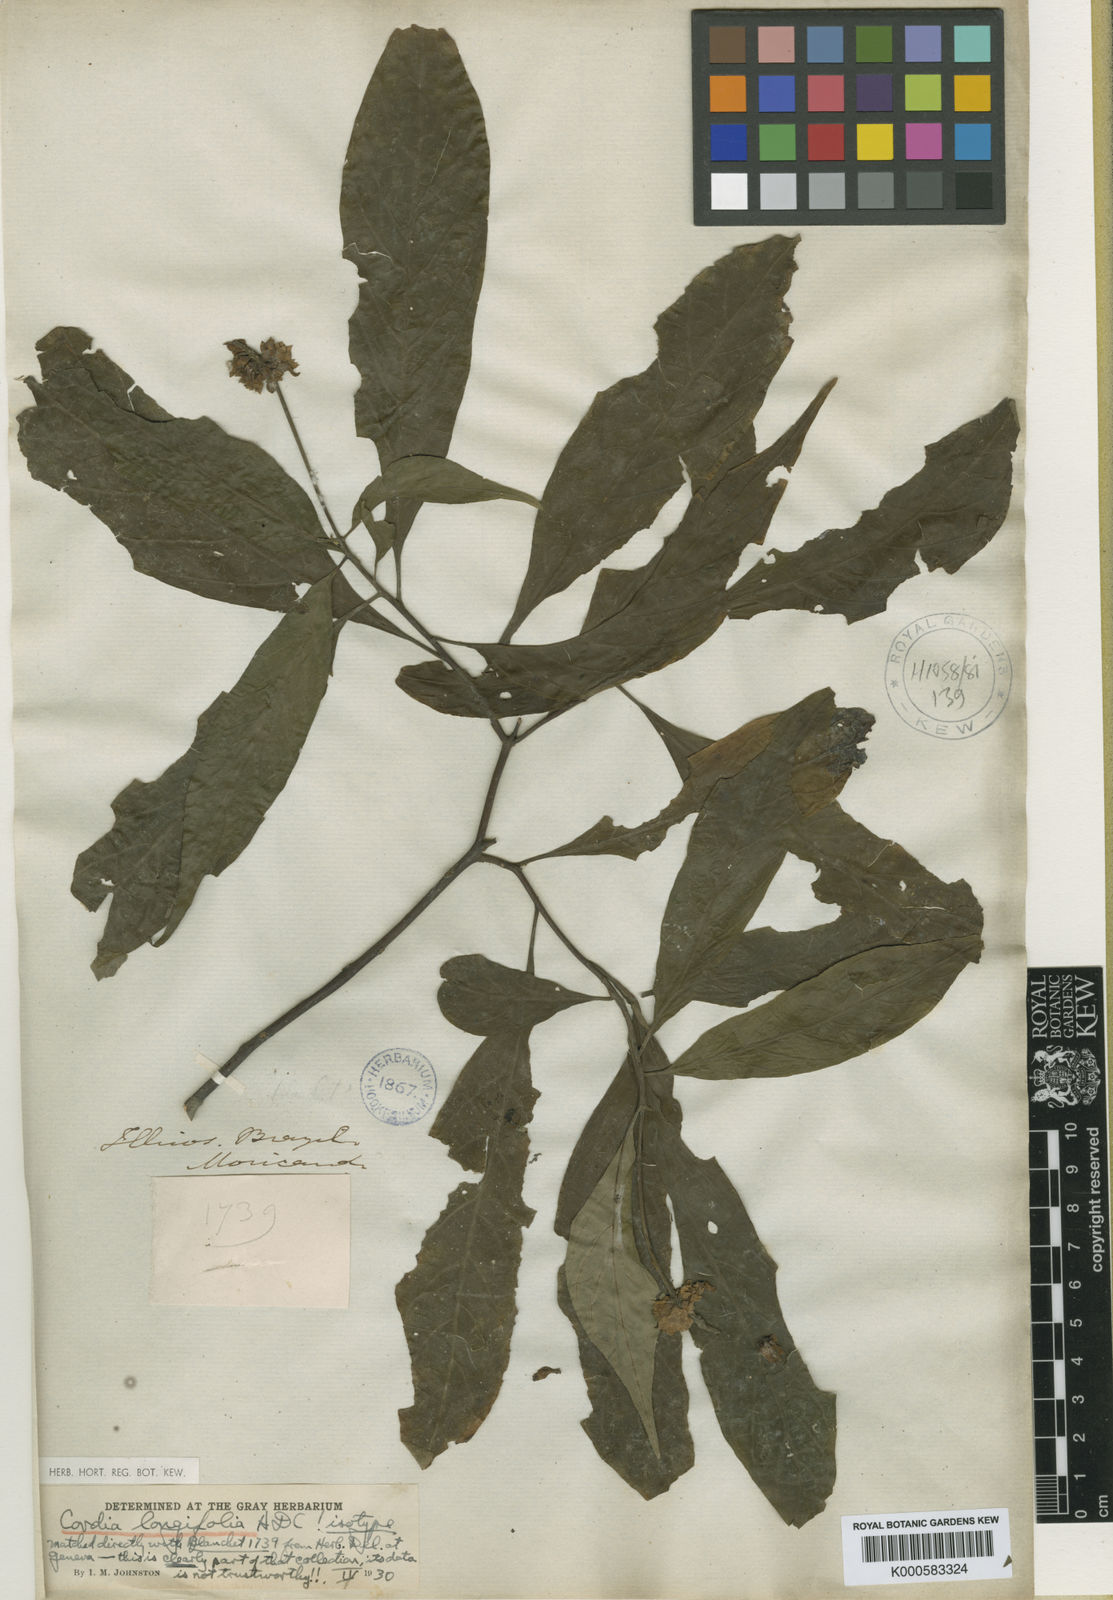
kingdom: Plantae
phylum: Tracheophyta
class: Magnoliopsida
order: Boraginales
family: Cordiaceae
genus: Varronia
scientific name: Varronia candolleana
